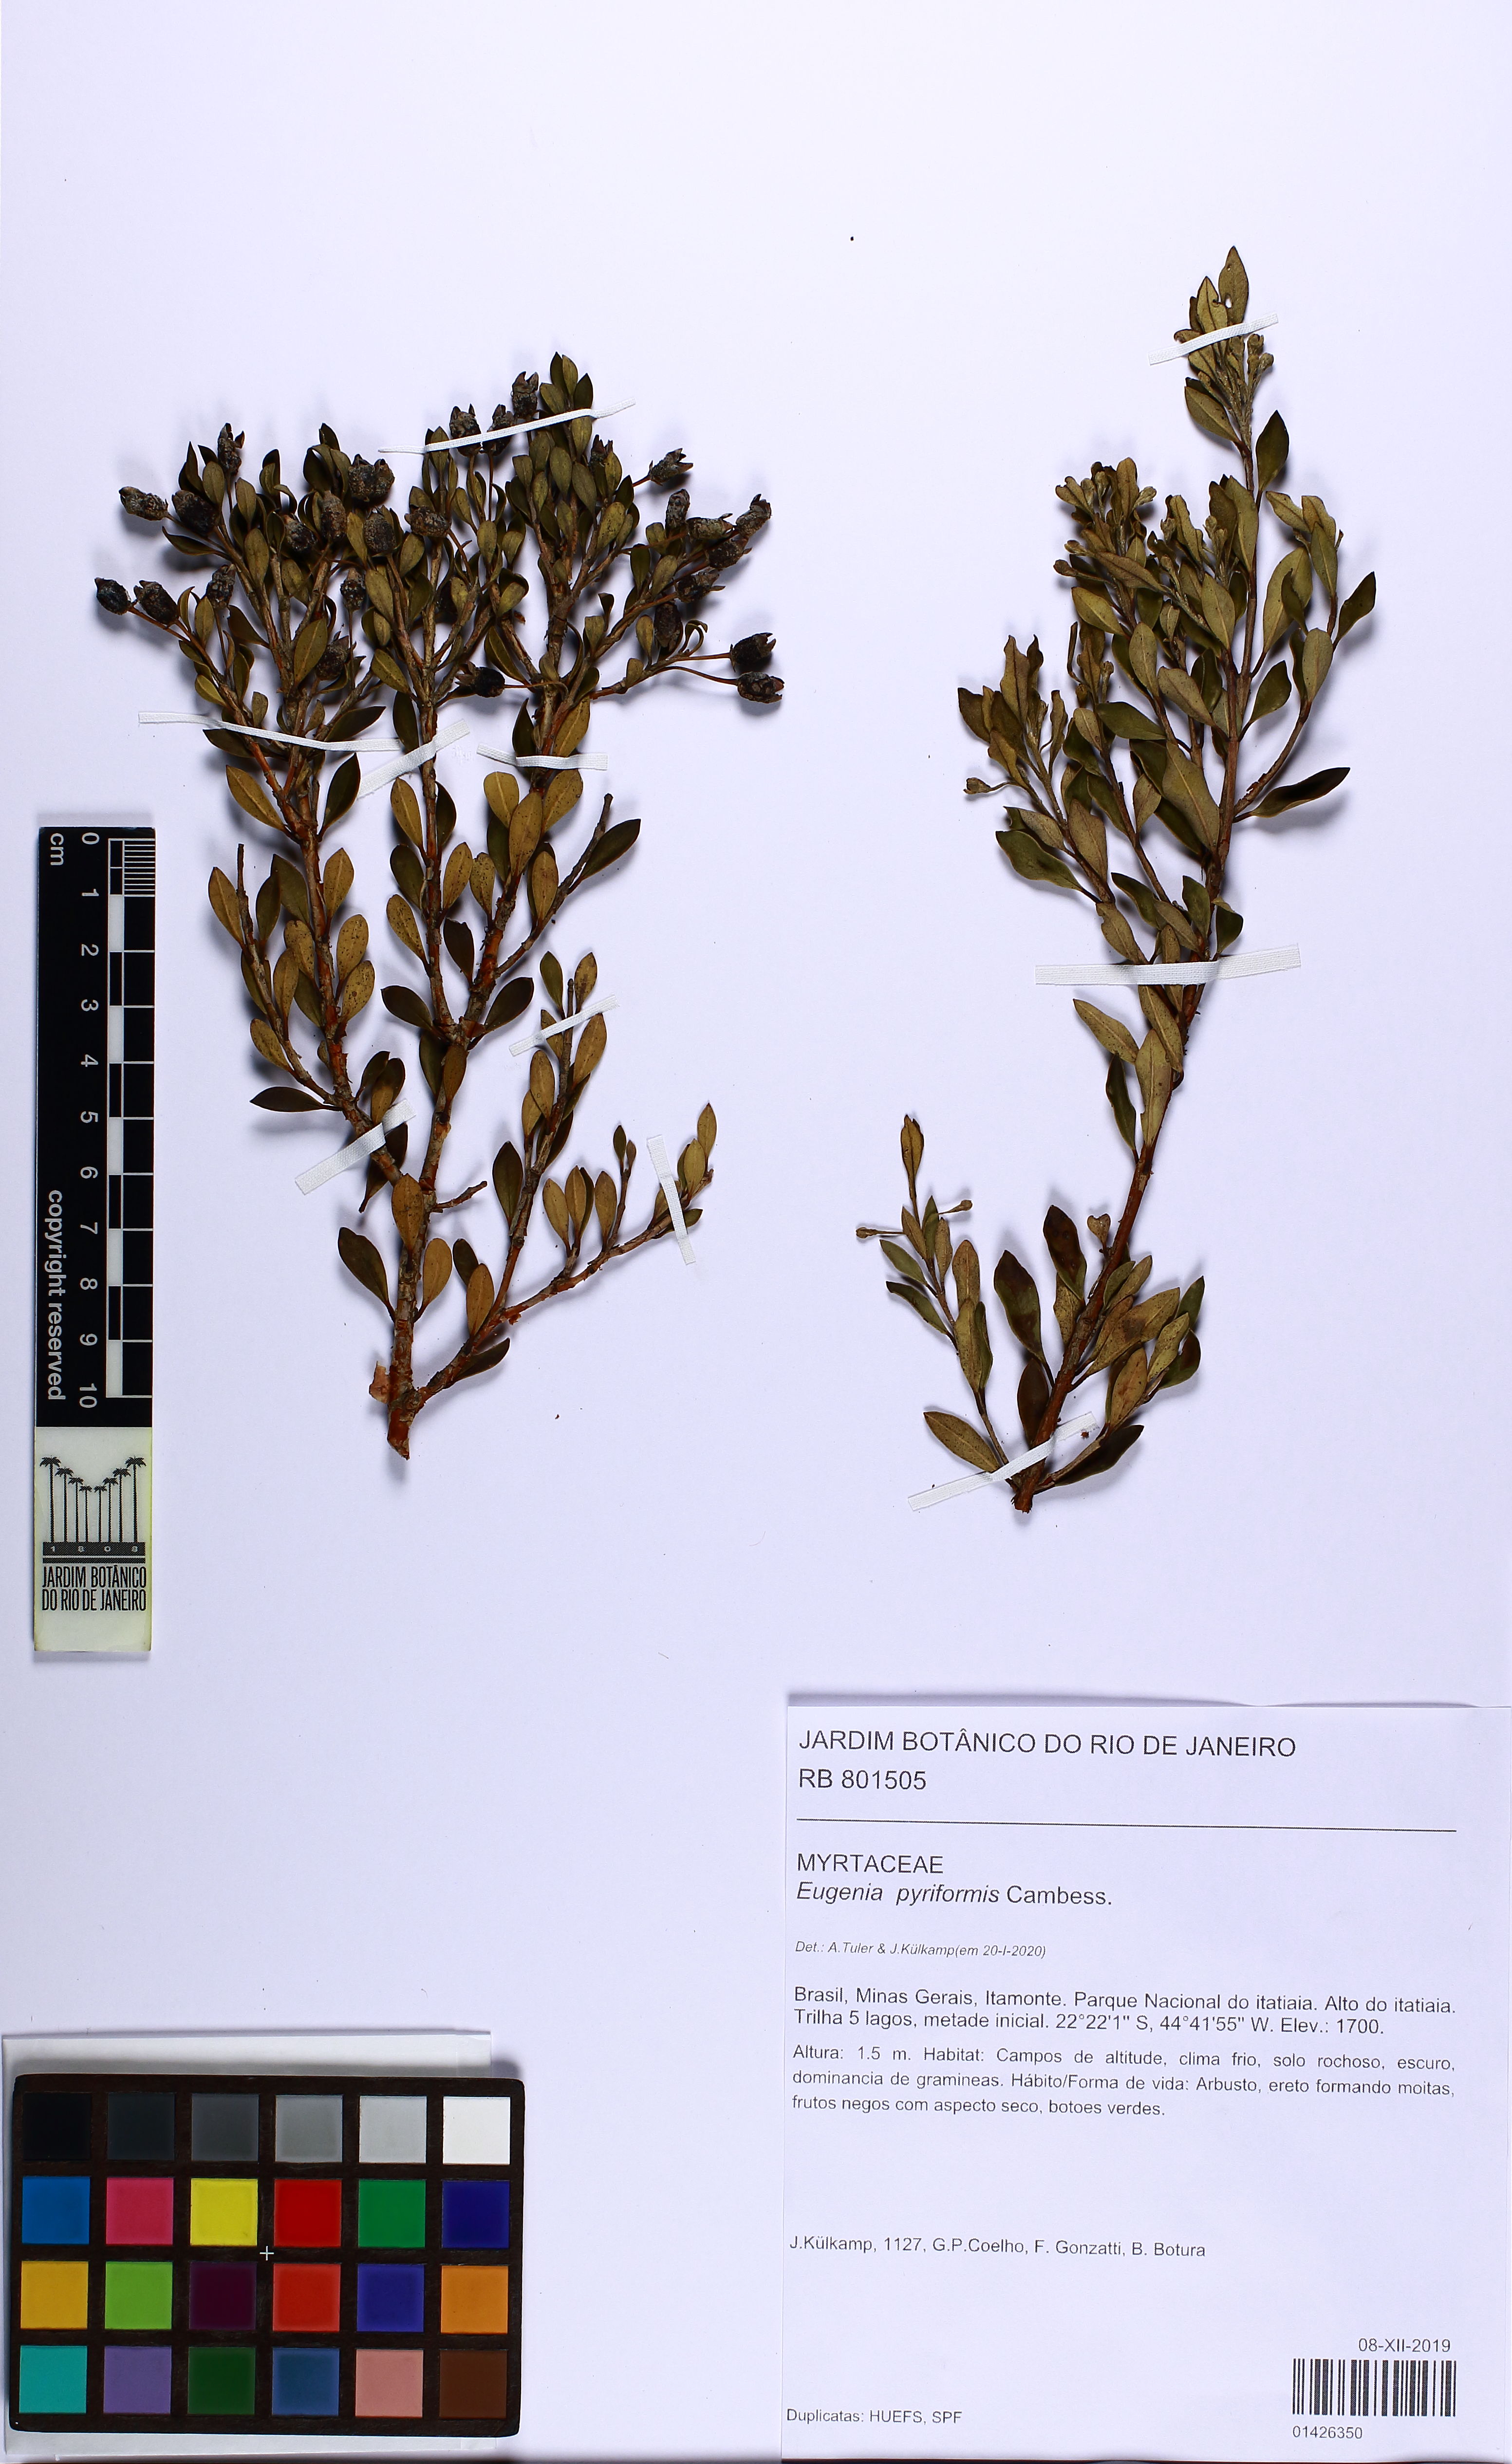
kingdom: Plantae
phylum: Tracheophyta
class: Magnoliopsida
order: Myrtales
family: Myrtaceae
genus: Eugenia
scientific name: Eugenia pyriformis
